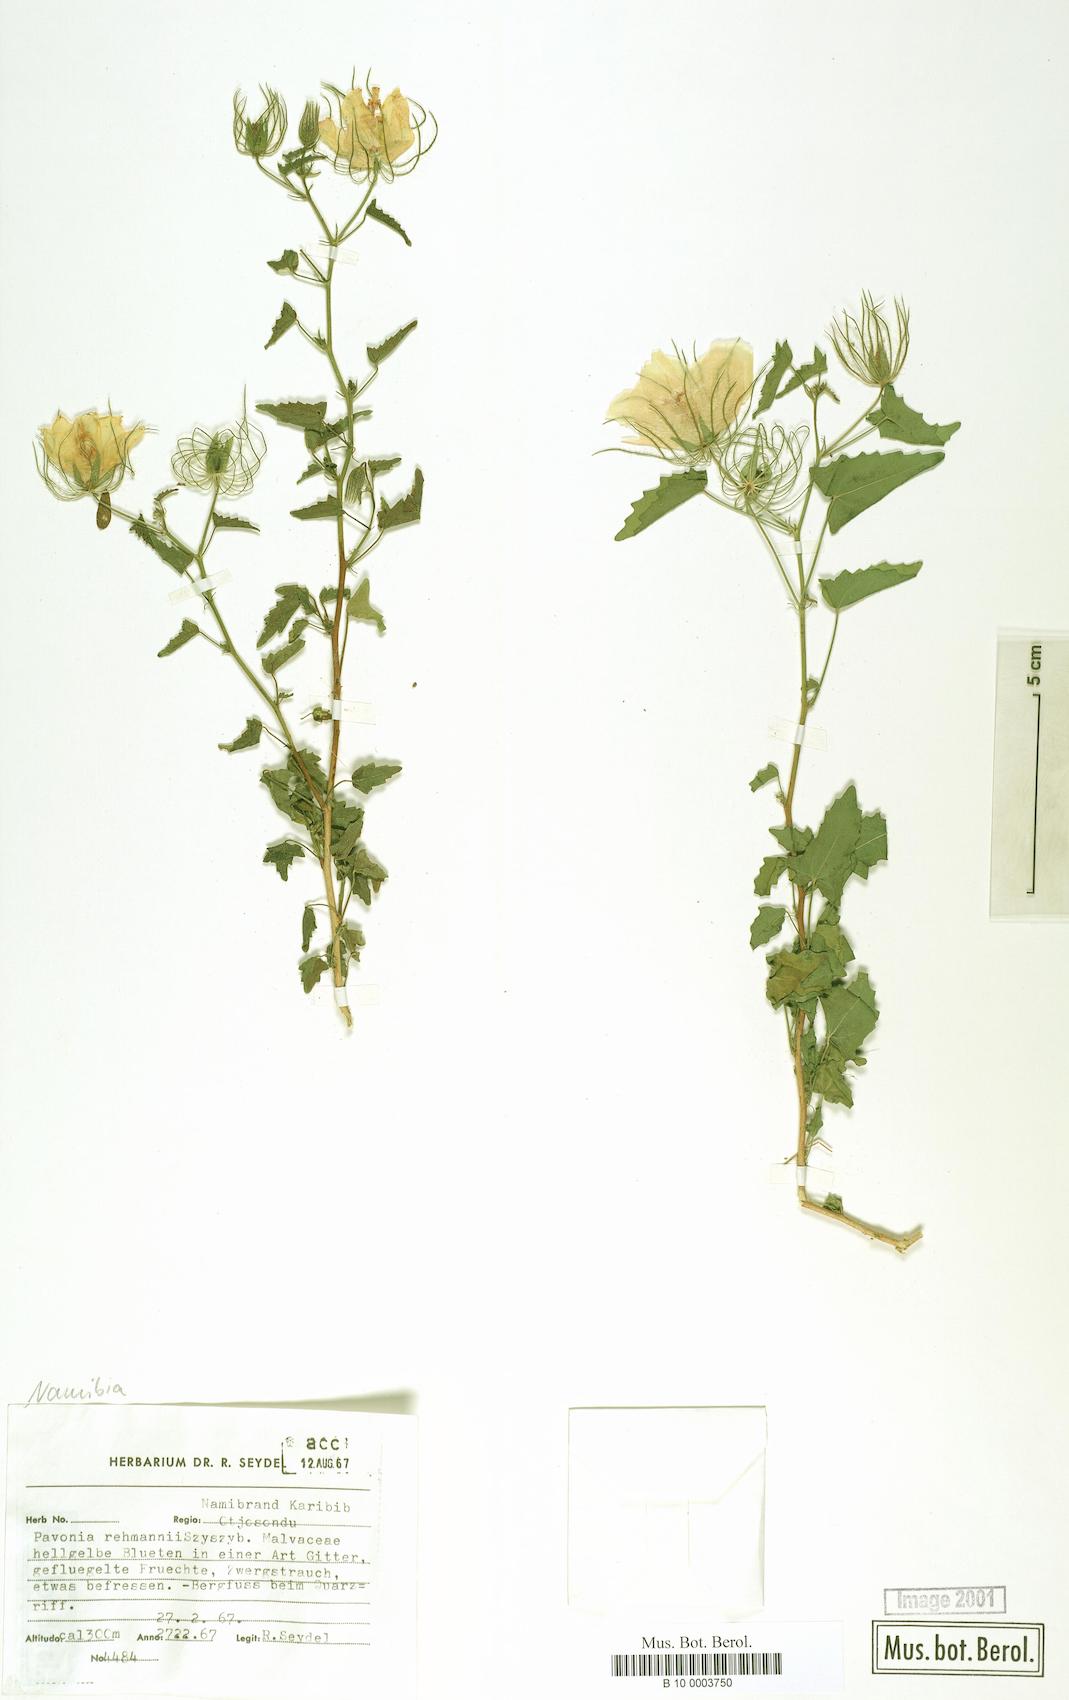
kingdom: Plantae
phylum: Tracheophyta
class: Magnoliopsida
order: Malvales
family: Malvaceae
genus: Pavonia
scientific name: Pavonia rehmannii
